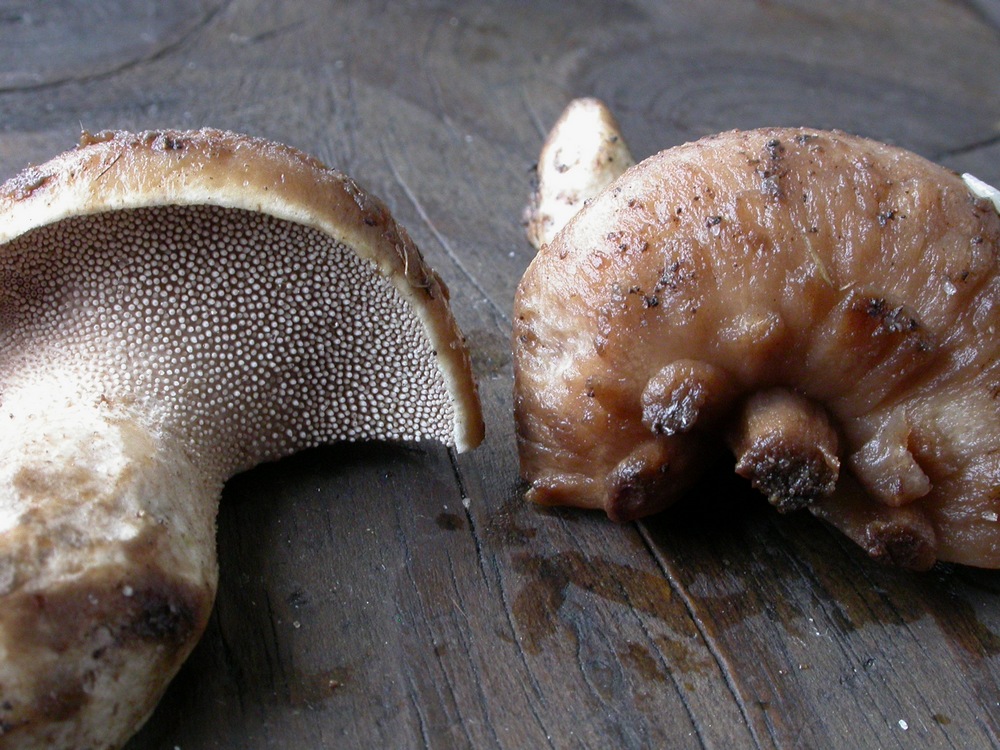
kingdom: Fungi
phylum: Basidiomycota
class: Agaricomycetes
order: Thelephorales
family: Bankeraceae
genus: Sarcodon
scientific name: Sarcodon imbricatus
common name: skællet kødpigsvamp
